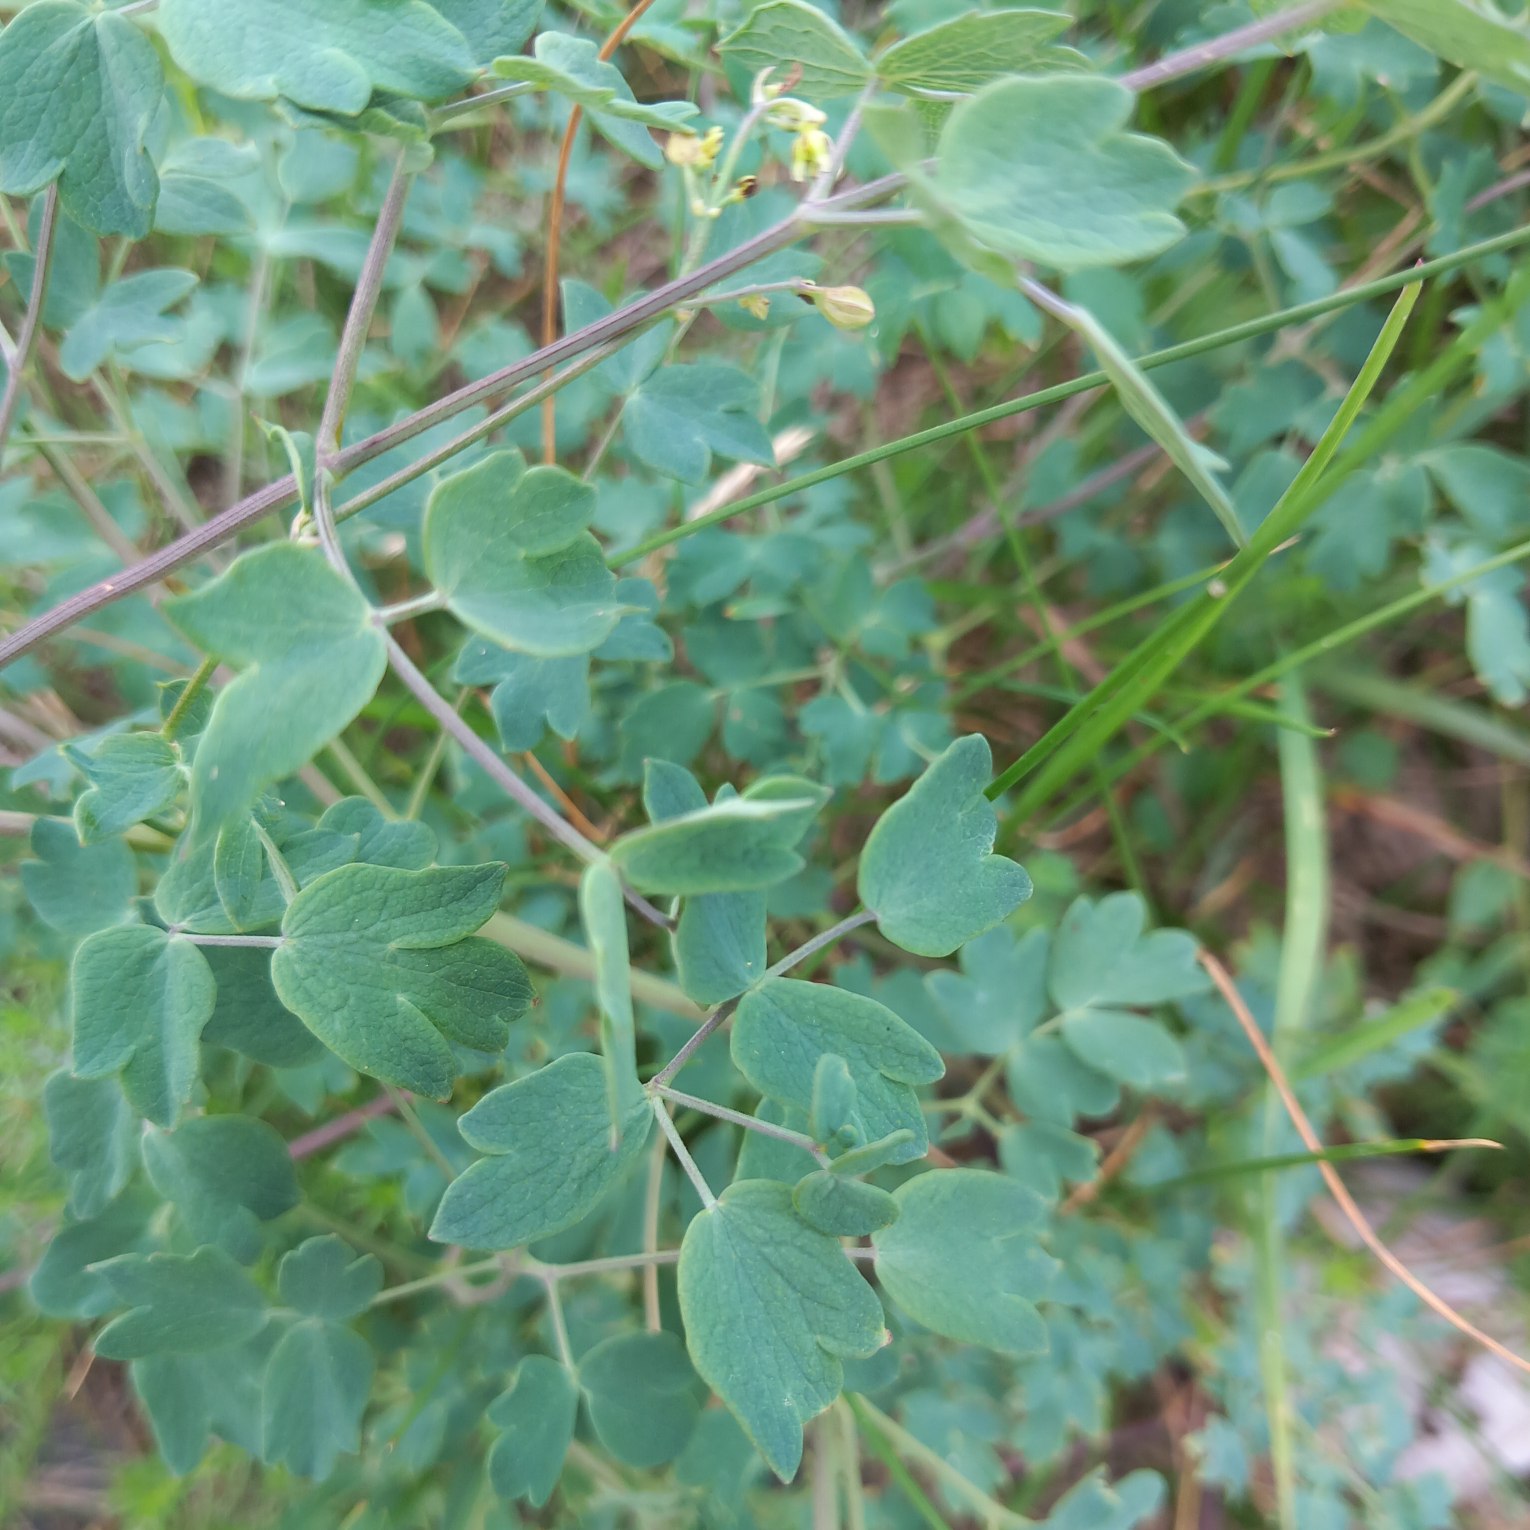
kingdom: Plantae
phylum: Tracheophyta
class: Magnoliopsida
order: Ranunculales
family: Ranunculaceae
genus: Thalictrum
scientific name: Thalictrum minus
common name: Liden frøstjerne
